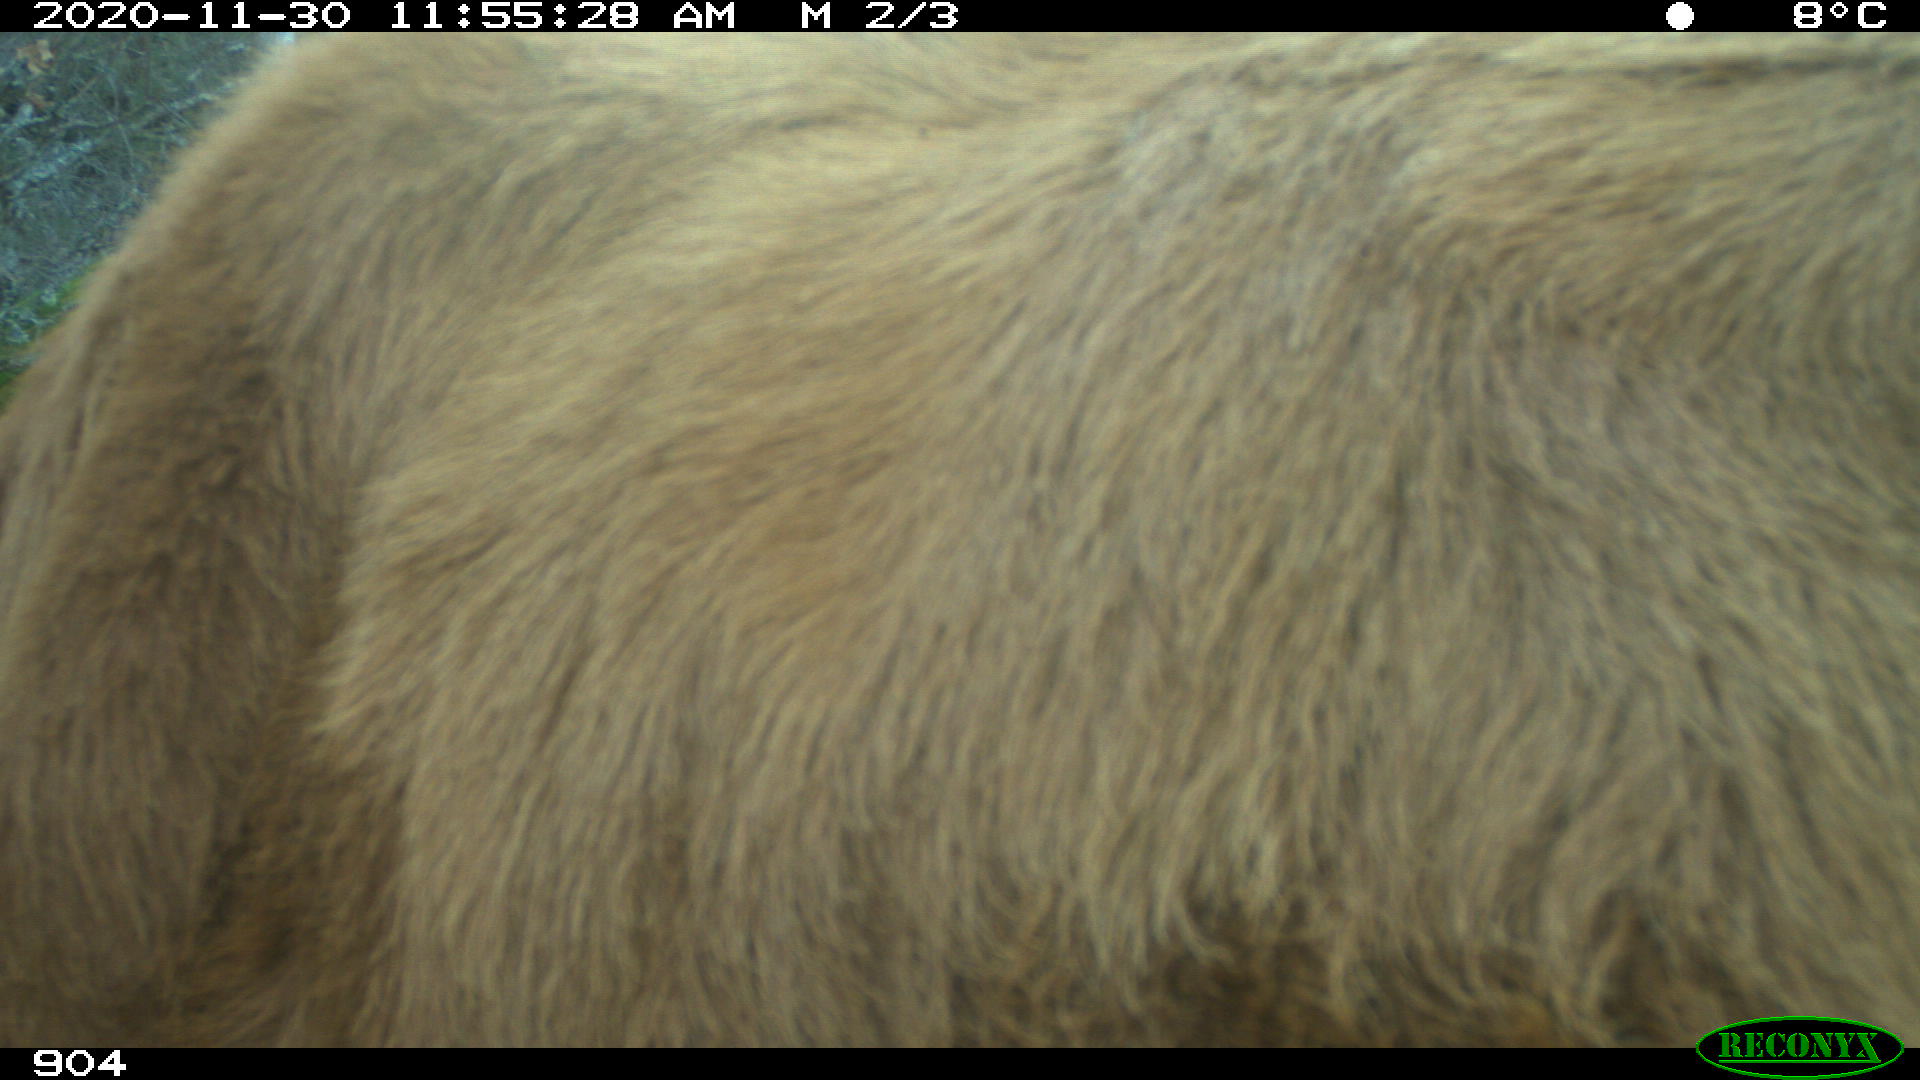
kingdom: Animalia
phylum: Chordata
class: Mammalia
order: Artiodactyla
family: Bovidae
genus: Bos
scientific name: Bos taurus
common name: Domesticated cattle
